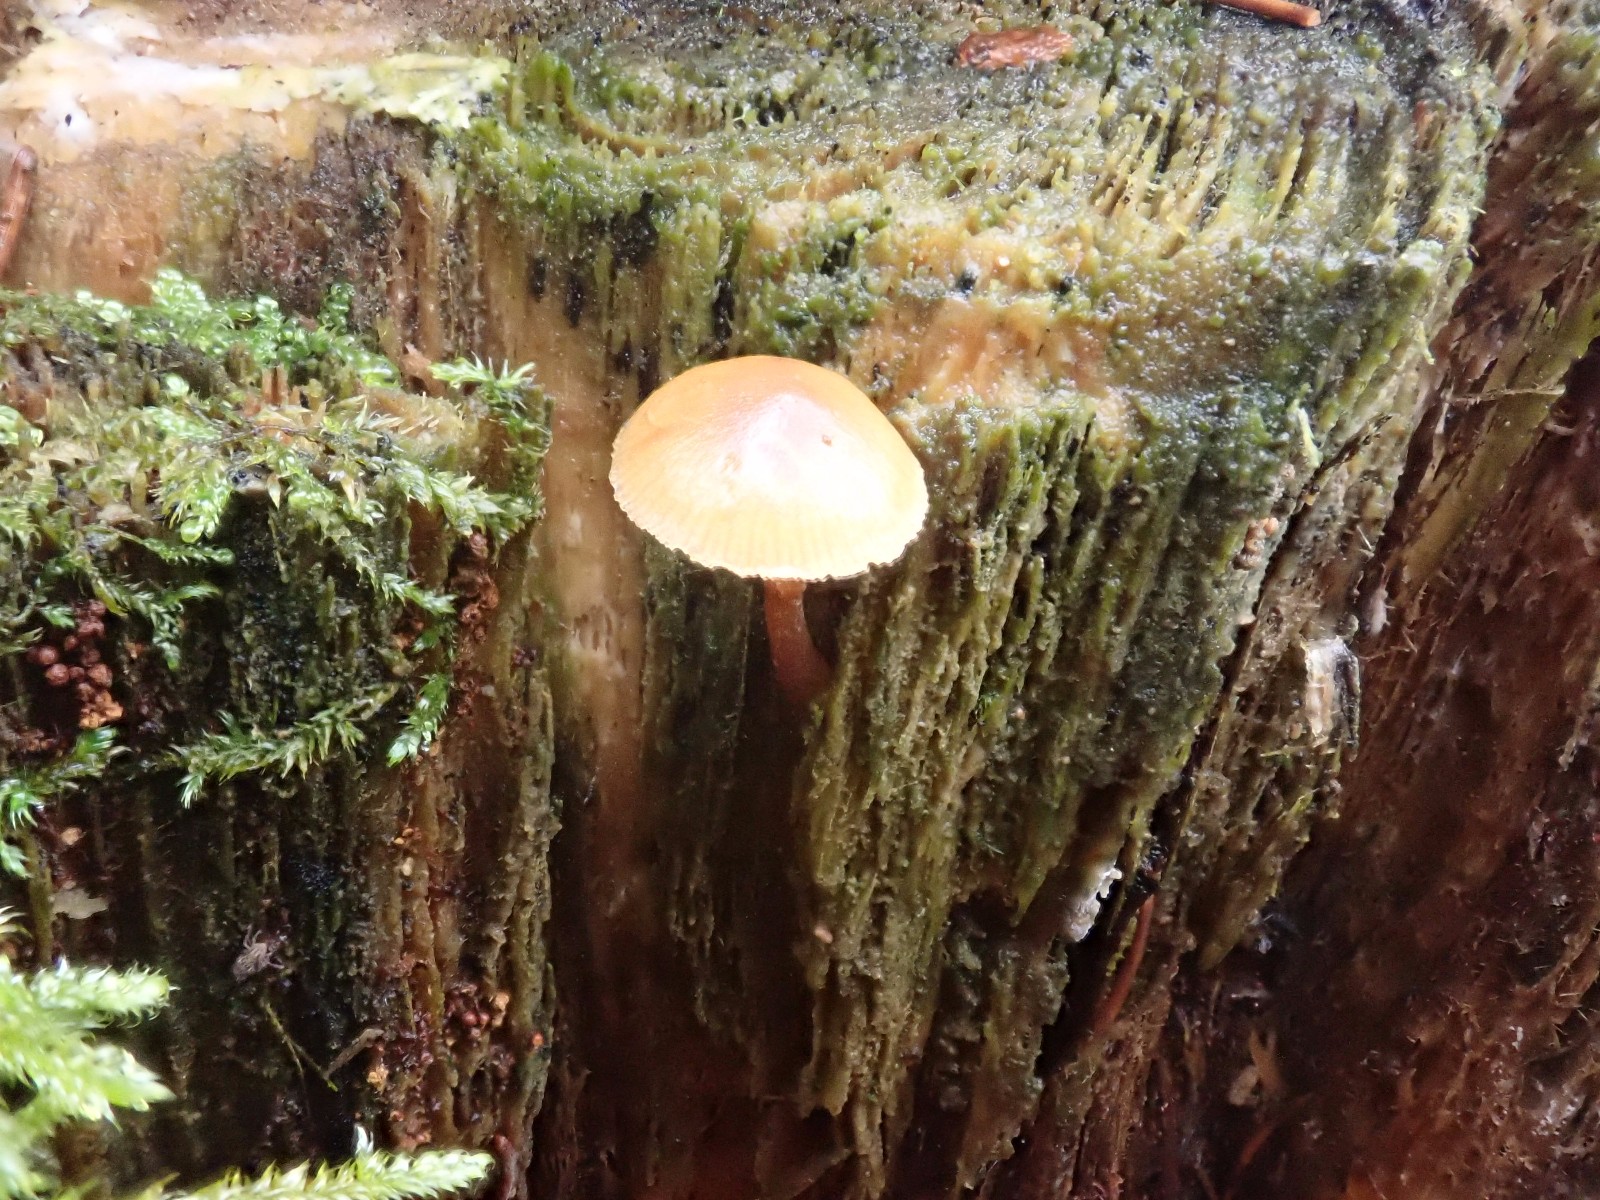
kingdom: Fungi
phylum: Basidiomycota
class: Agaricomycetes
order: Agaricales
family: Hymenogastraceae
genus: Galerina
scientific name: Galerina marginata
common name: randbæltet hjelmhat
